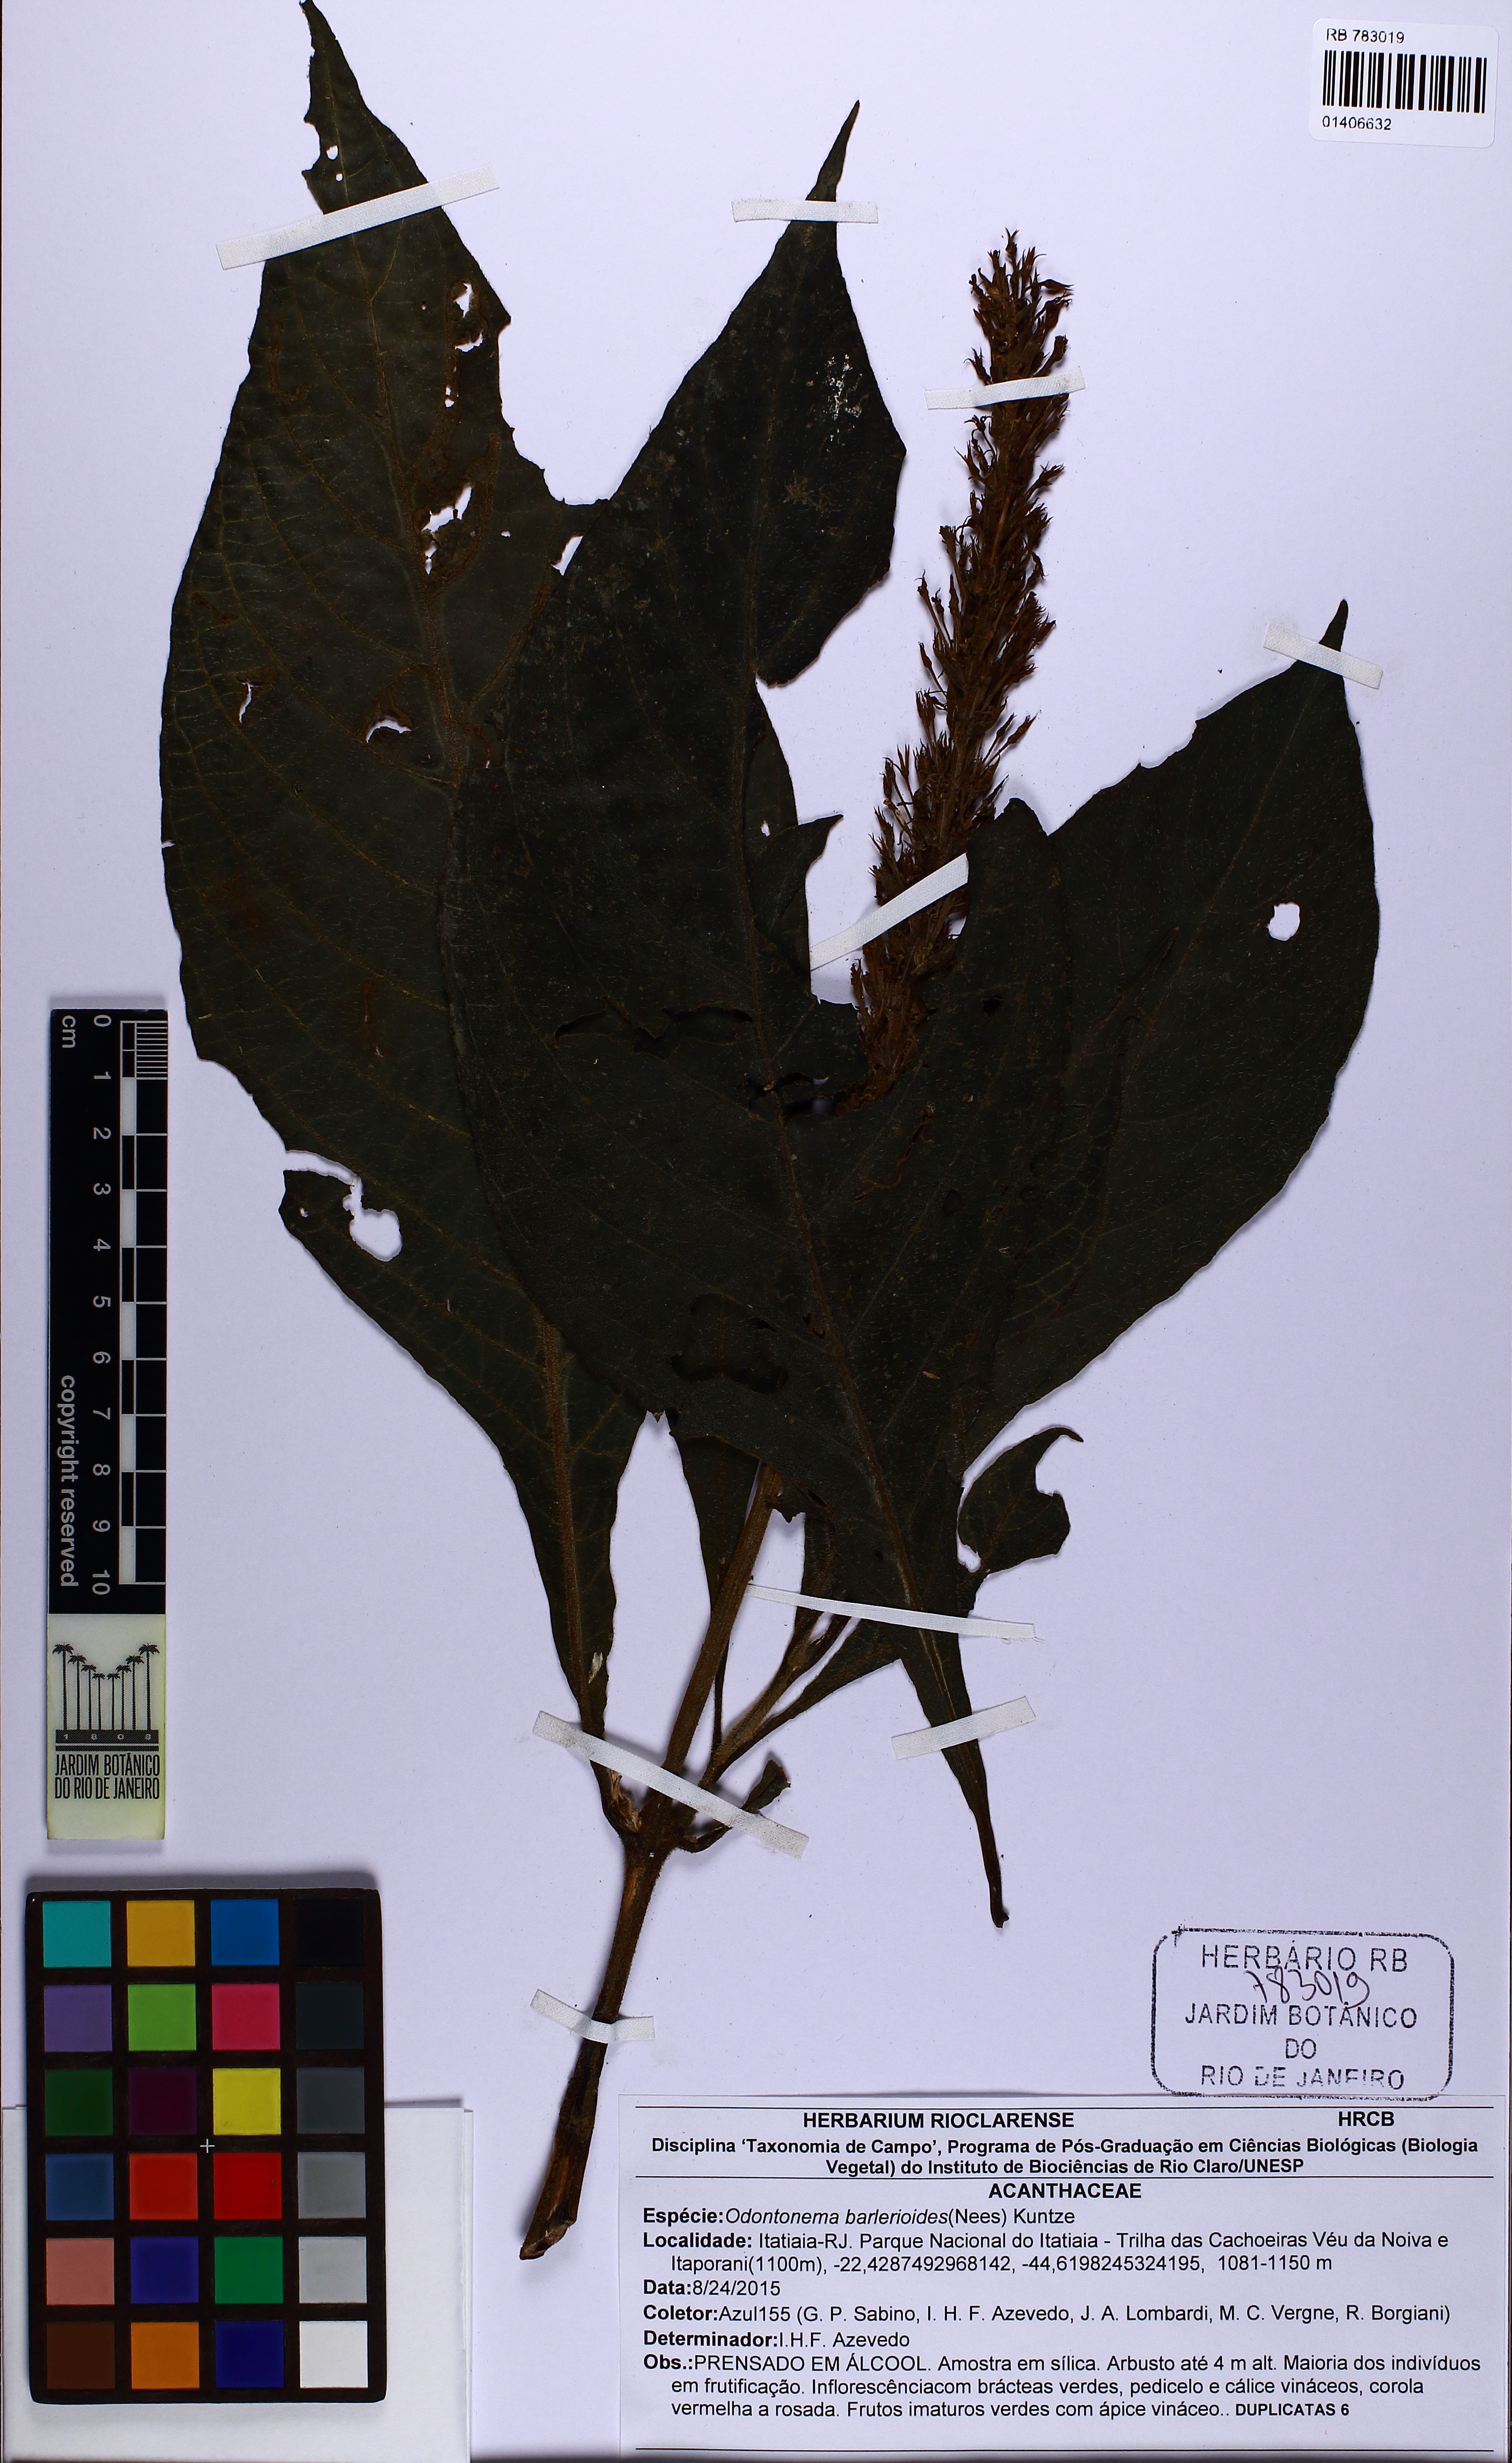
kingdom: Plantae
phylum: Tracheophyta
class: Magnoliopsida
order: Lamiales
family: Acanthaceae
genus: Odontonema
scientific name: Odontonema barleriodes
